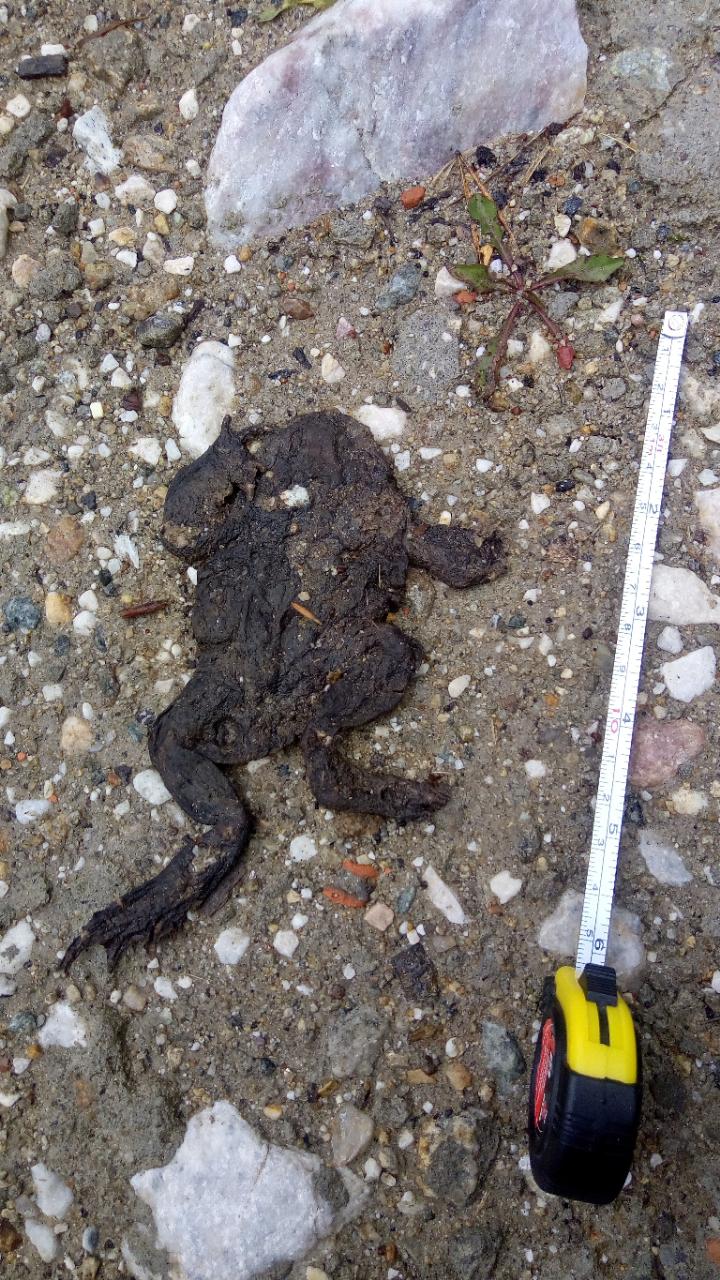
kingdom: Animalia
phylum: Chordata
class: Amphibia
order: Anura
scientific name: Anura
